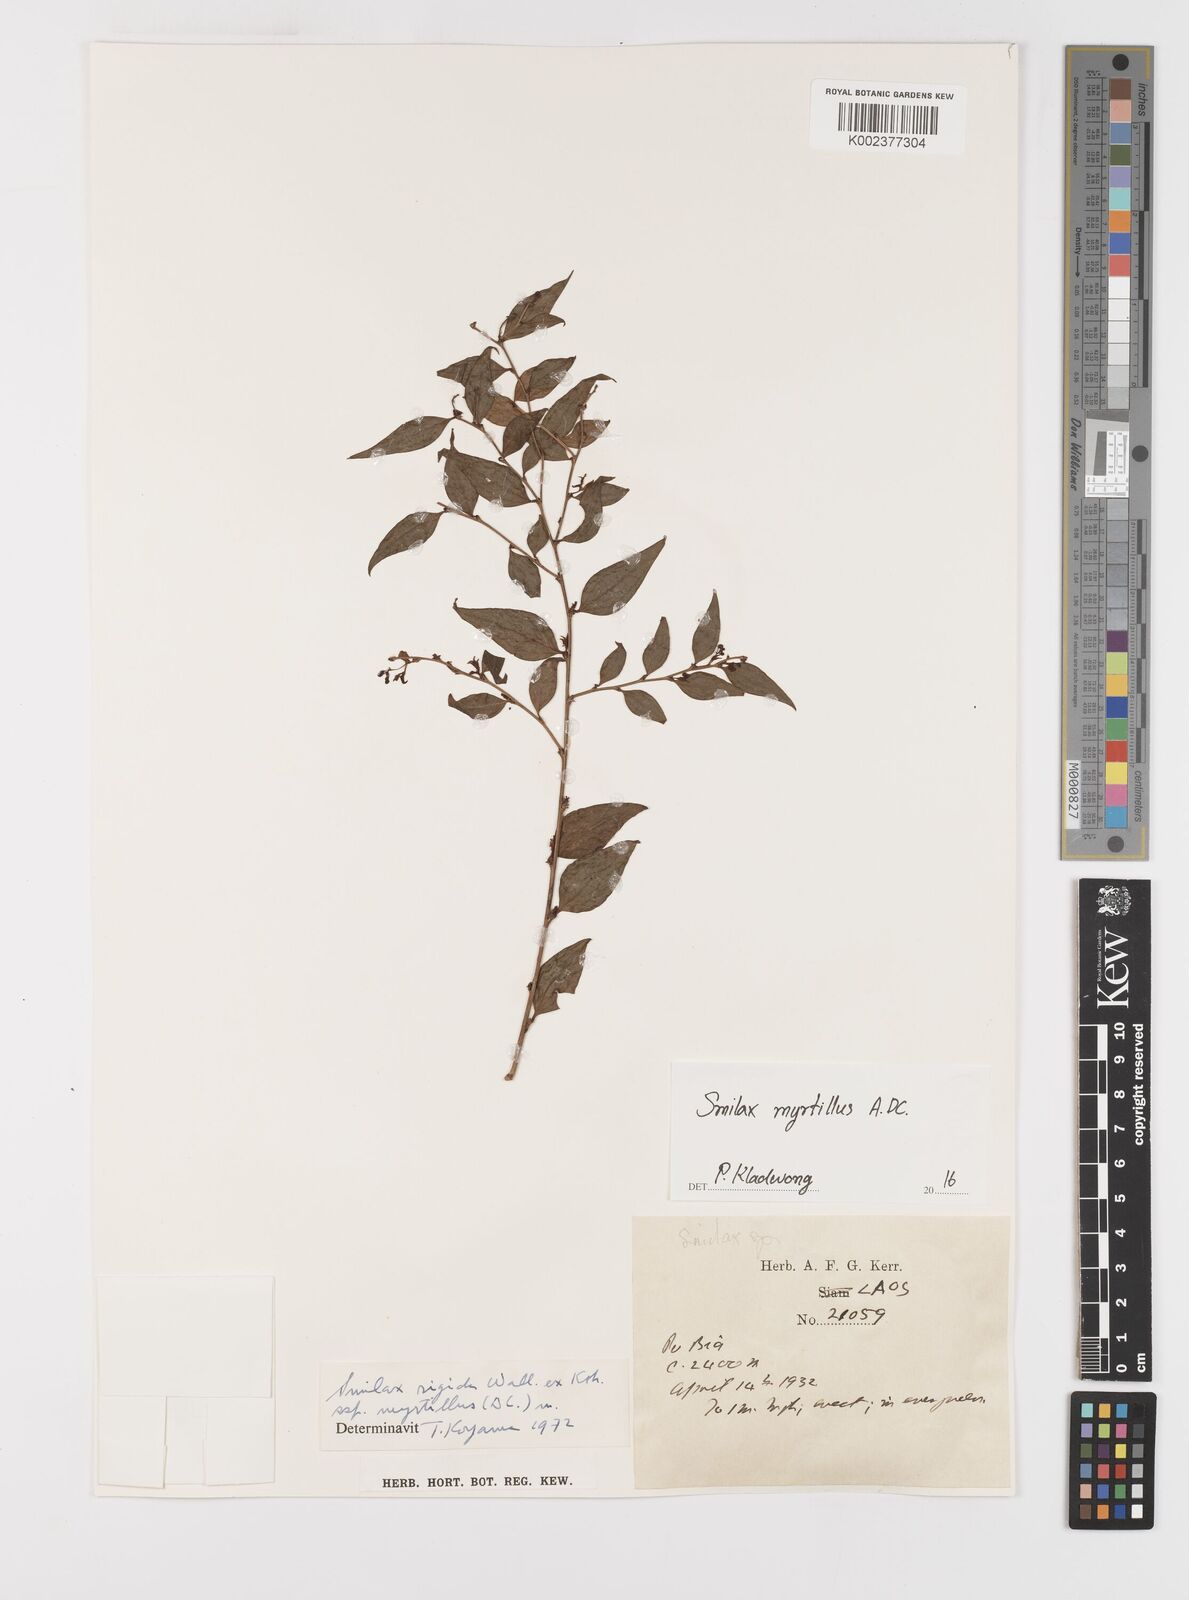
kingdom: Plantae
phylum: Tracheophyta
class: Liliopsida
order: Liliales
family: Smilacaceae
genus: Smilax
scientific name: Smilax myrtillus
